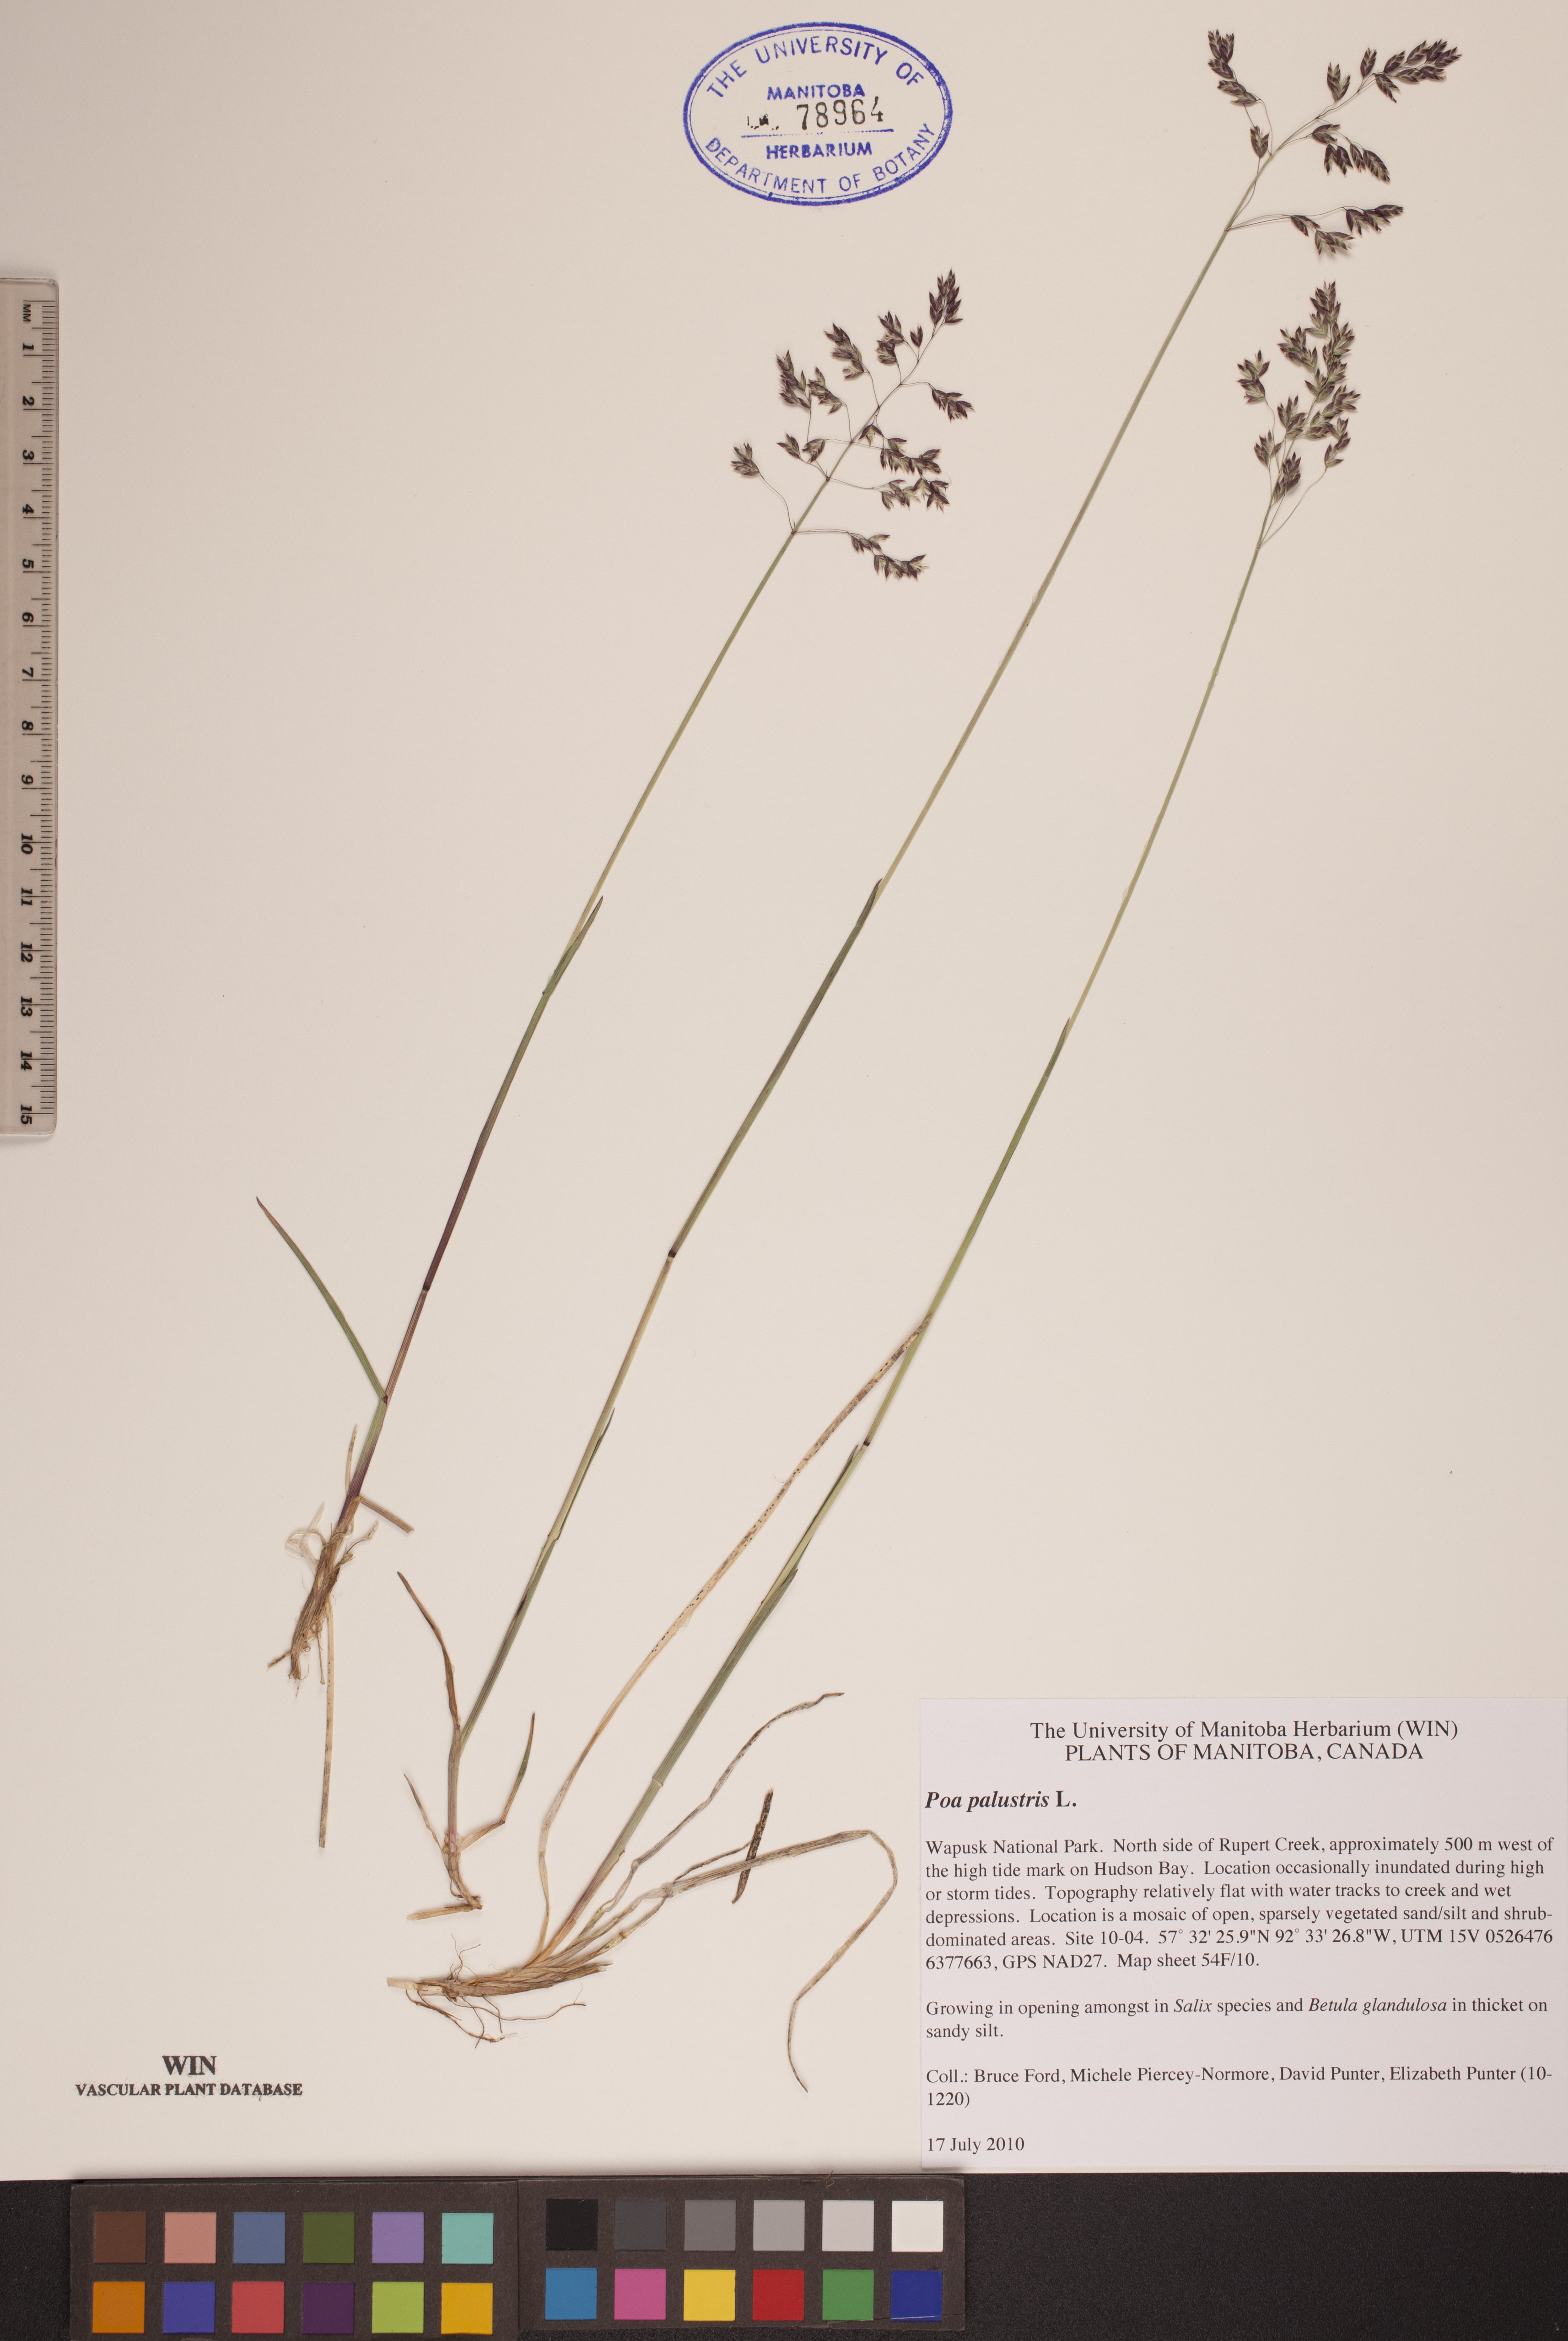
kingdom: Plantae
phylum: Tracheophyta
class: Liliopsida
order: Poales
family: Poaceae
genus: Poa
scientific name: Poa palustris
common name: Swamp meadow-grass
